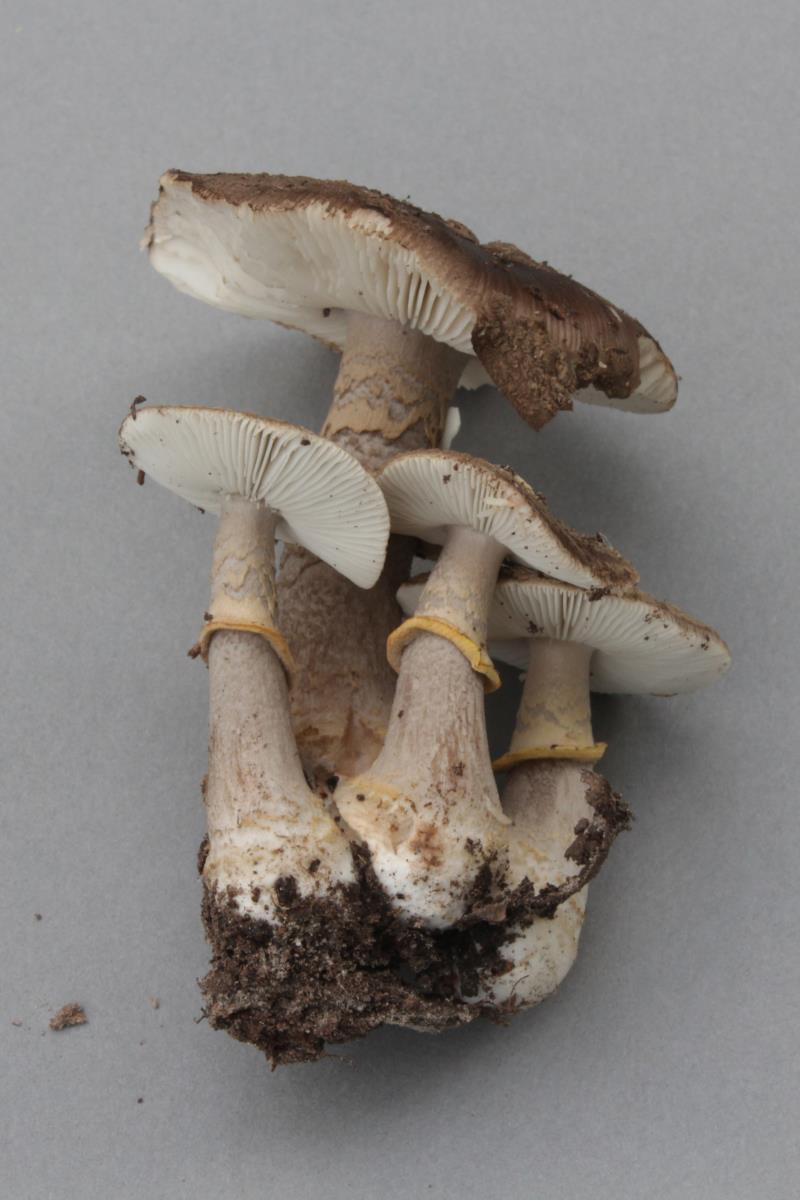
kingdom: Fungi
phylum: Basidiomycota
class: Agaricomycetes
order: Agaricales
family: Amanitaceae
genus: Amanita
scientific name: Amanita nothofagi
